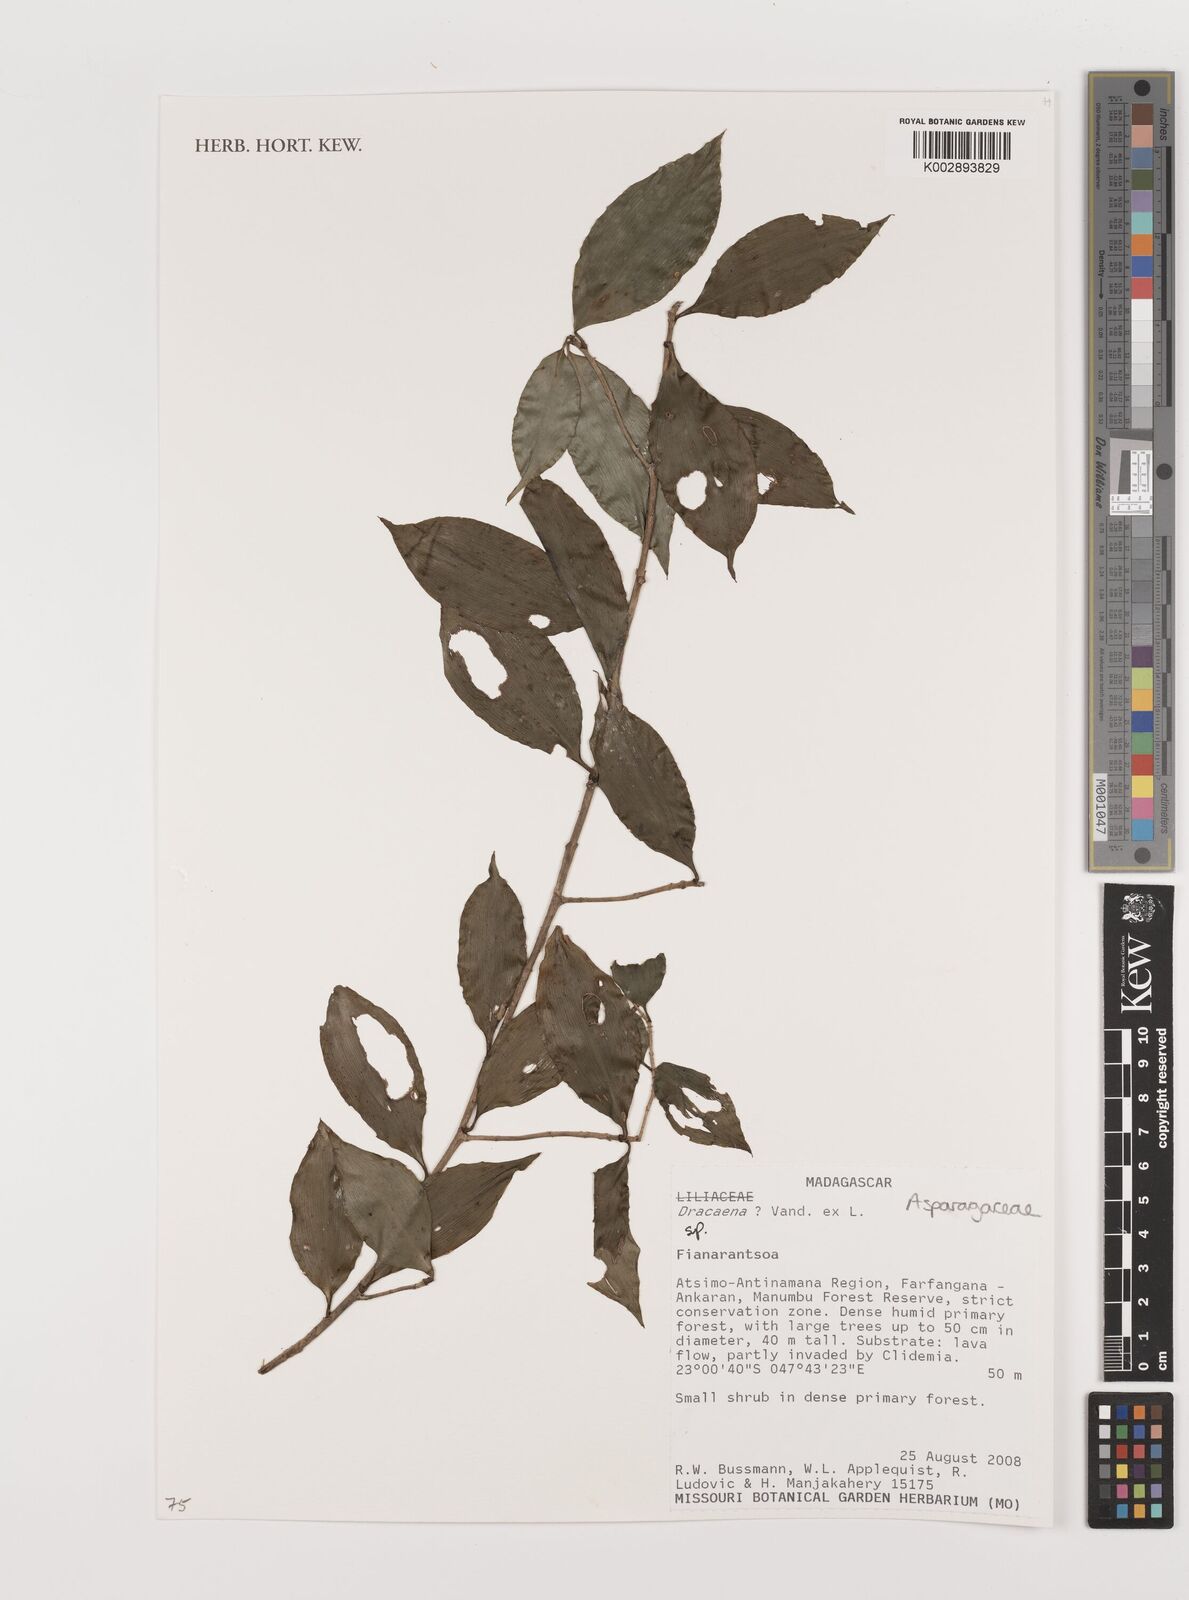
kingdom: Plantae
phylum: Tracheophyta
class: Liliopsida
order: Asparagales
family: Asparagaceae
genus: Dracaena
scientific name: Dracaena
